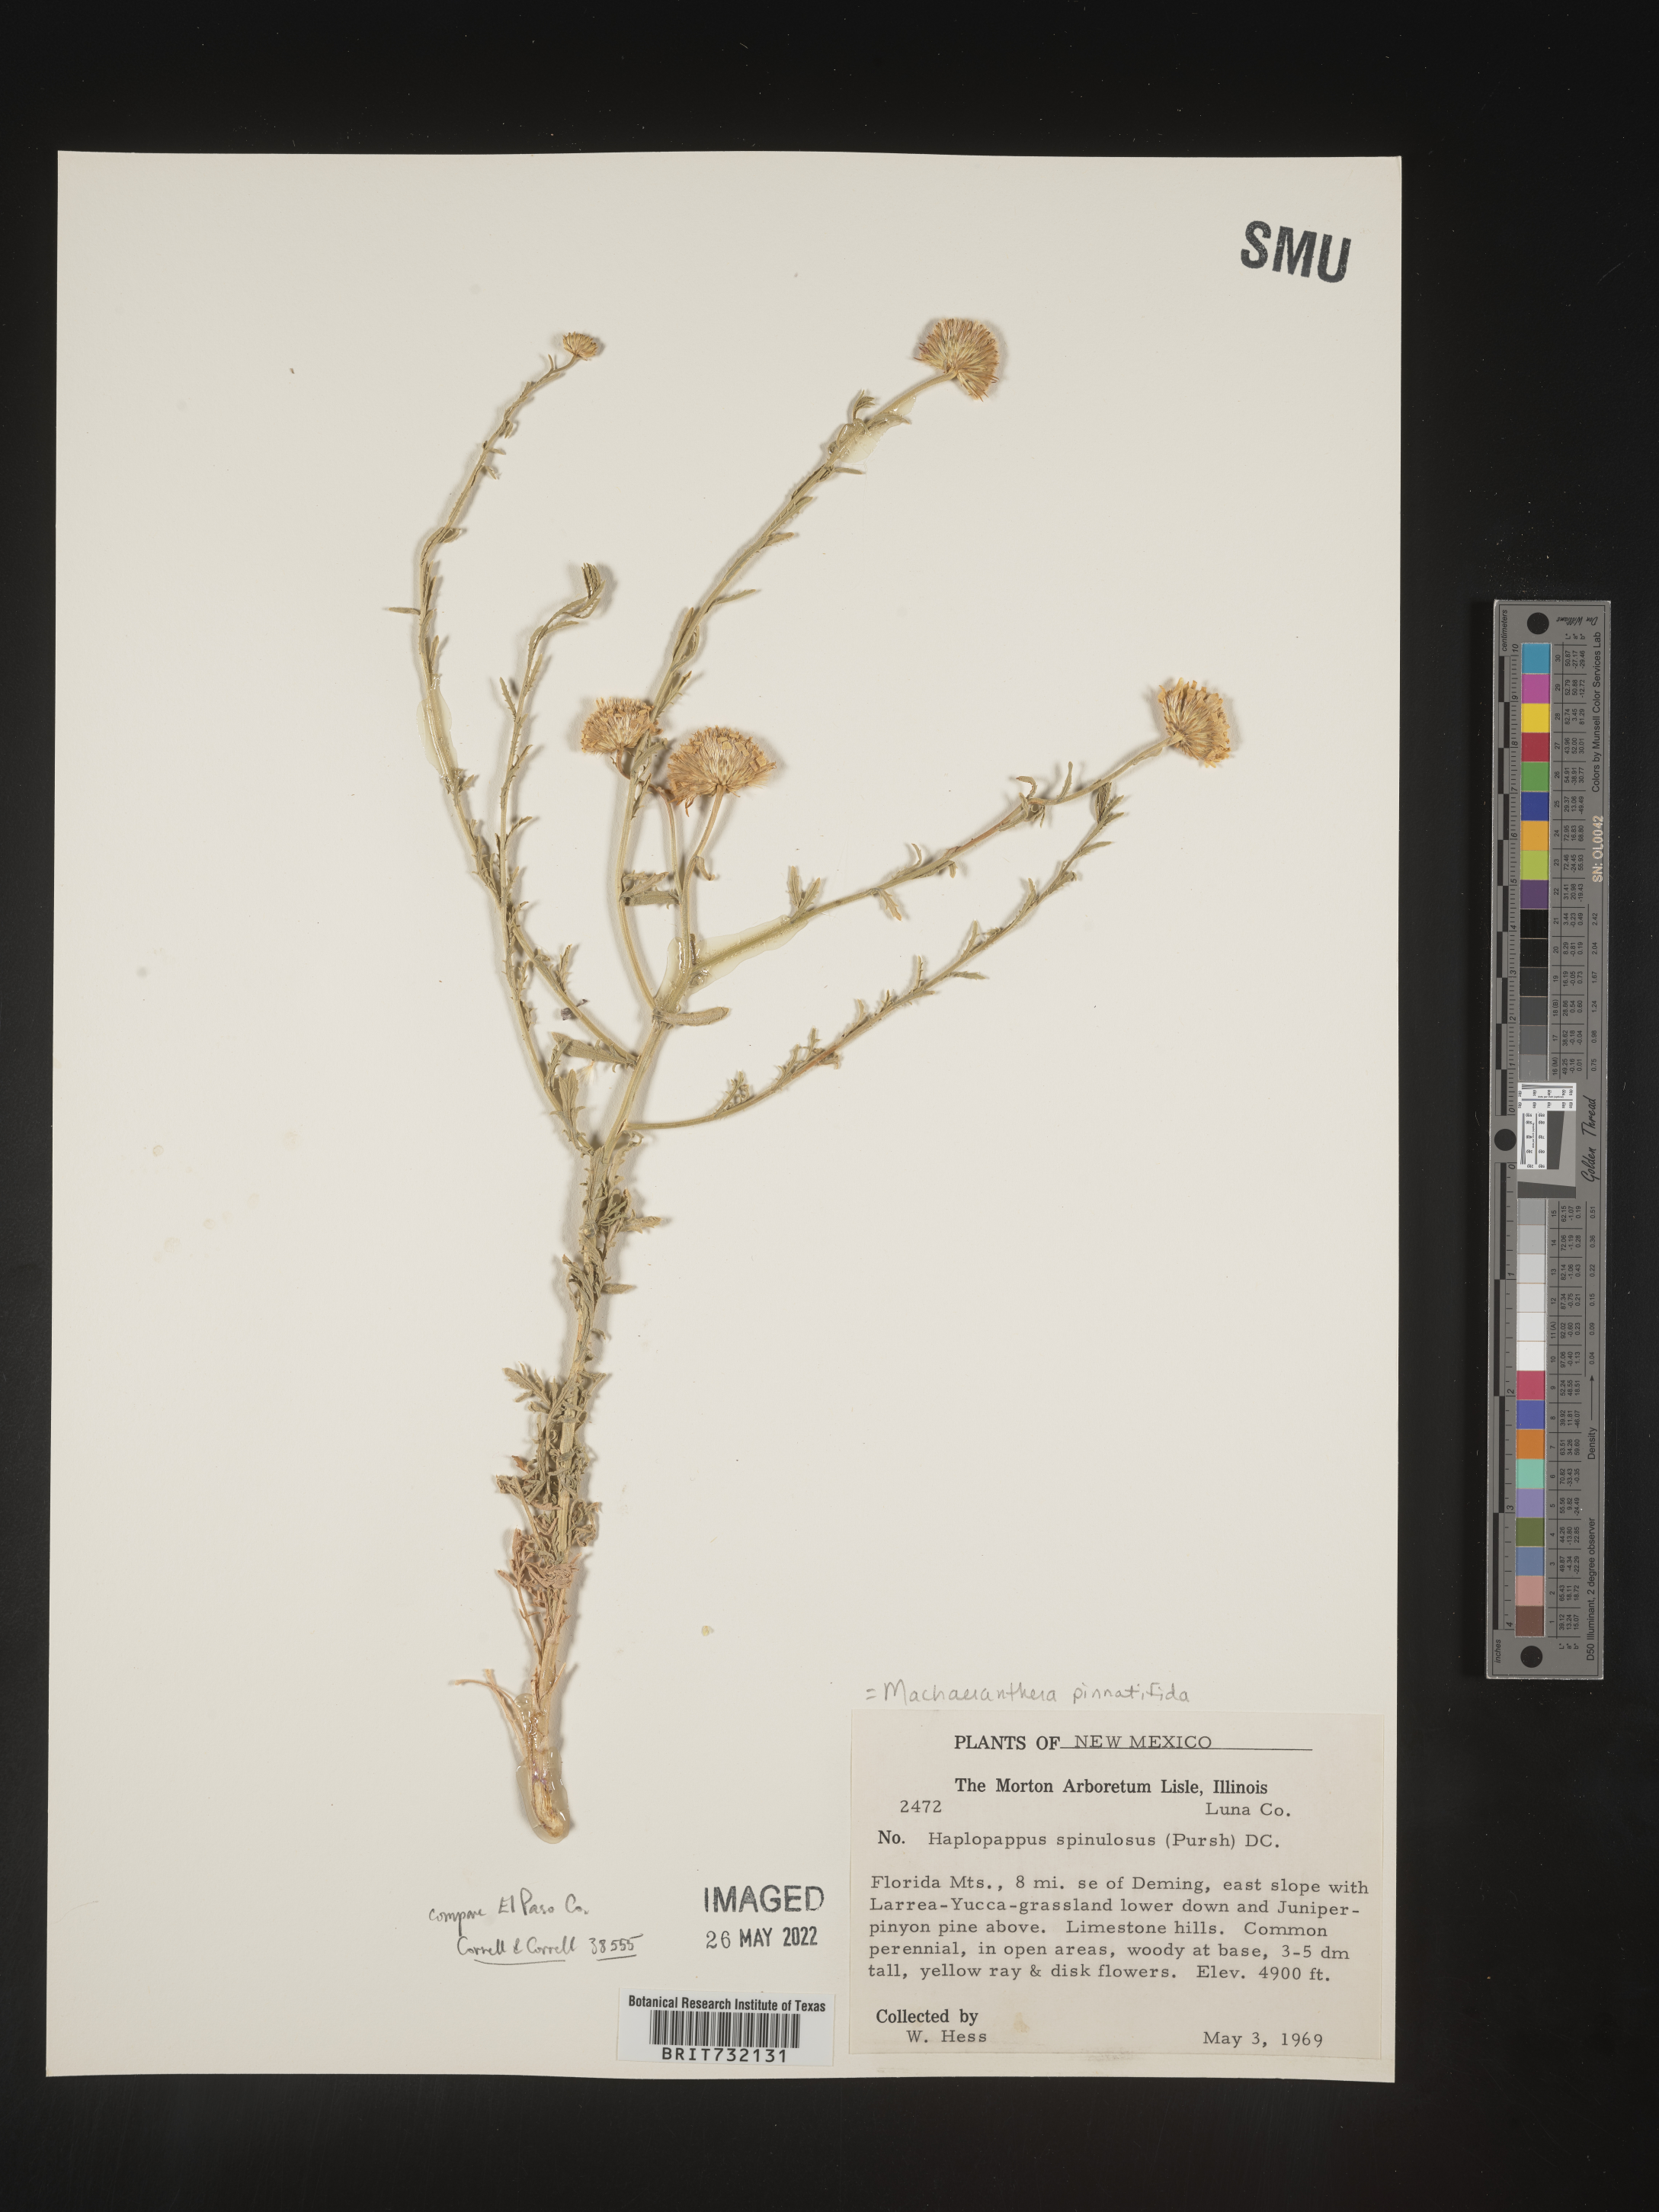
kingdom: Plantae
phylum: Tracheophyta
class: Magnoliopsida
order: Asterales
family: Asteraceae
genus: Xanthisma
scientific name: Xanthisma spinulosum
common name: Spiny goldenweed
